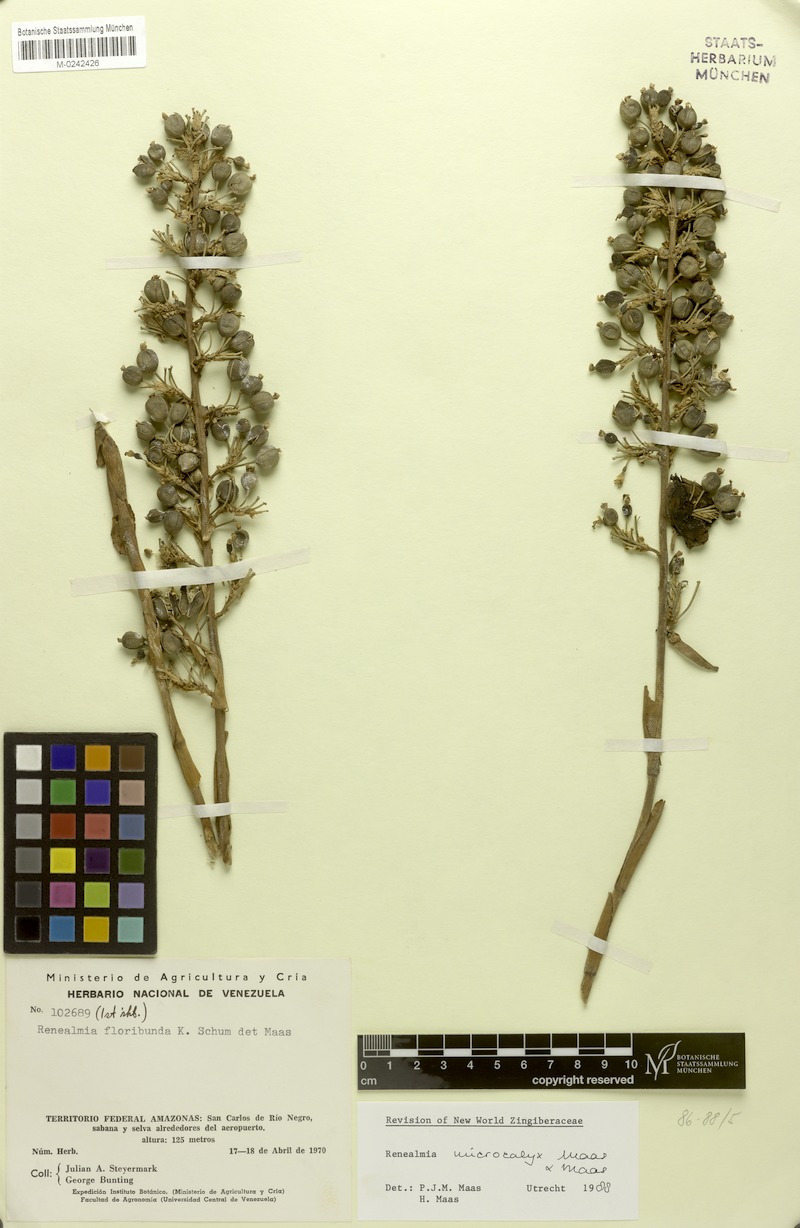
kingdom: Plantae
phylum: Tracheophyta
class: Liliopsida
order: Zingiberales
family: Zingiberaceae
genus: Renealmia
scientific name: Renealmia microcalyx
